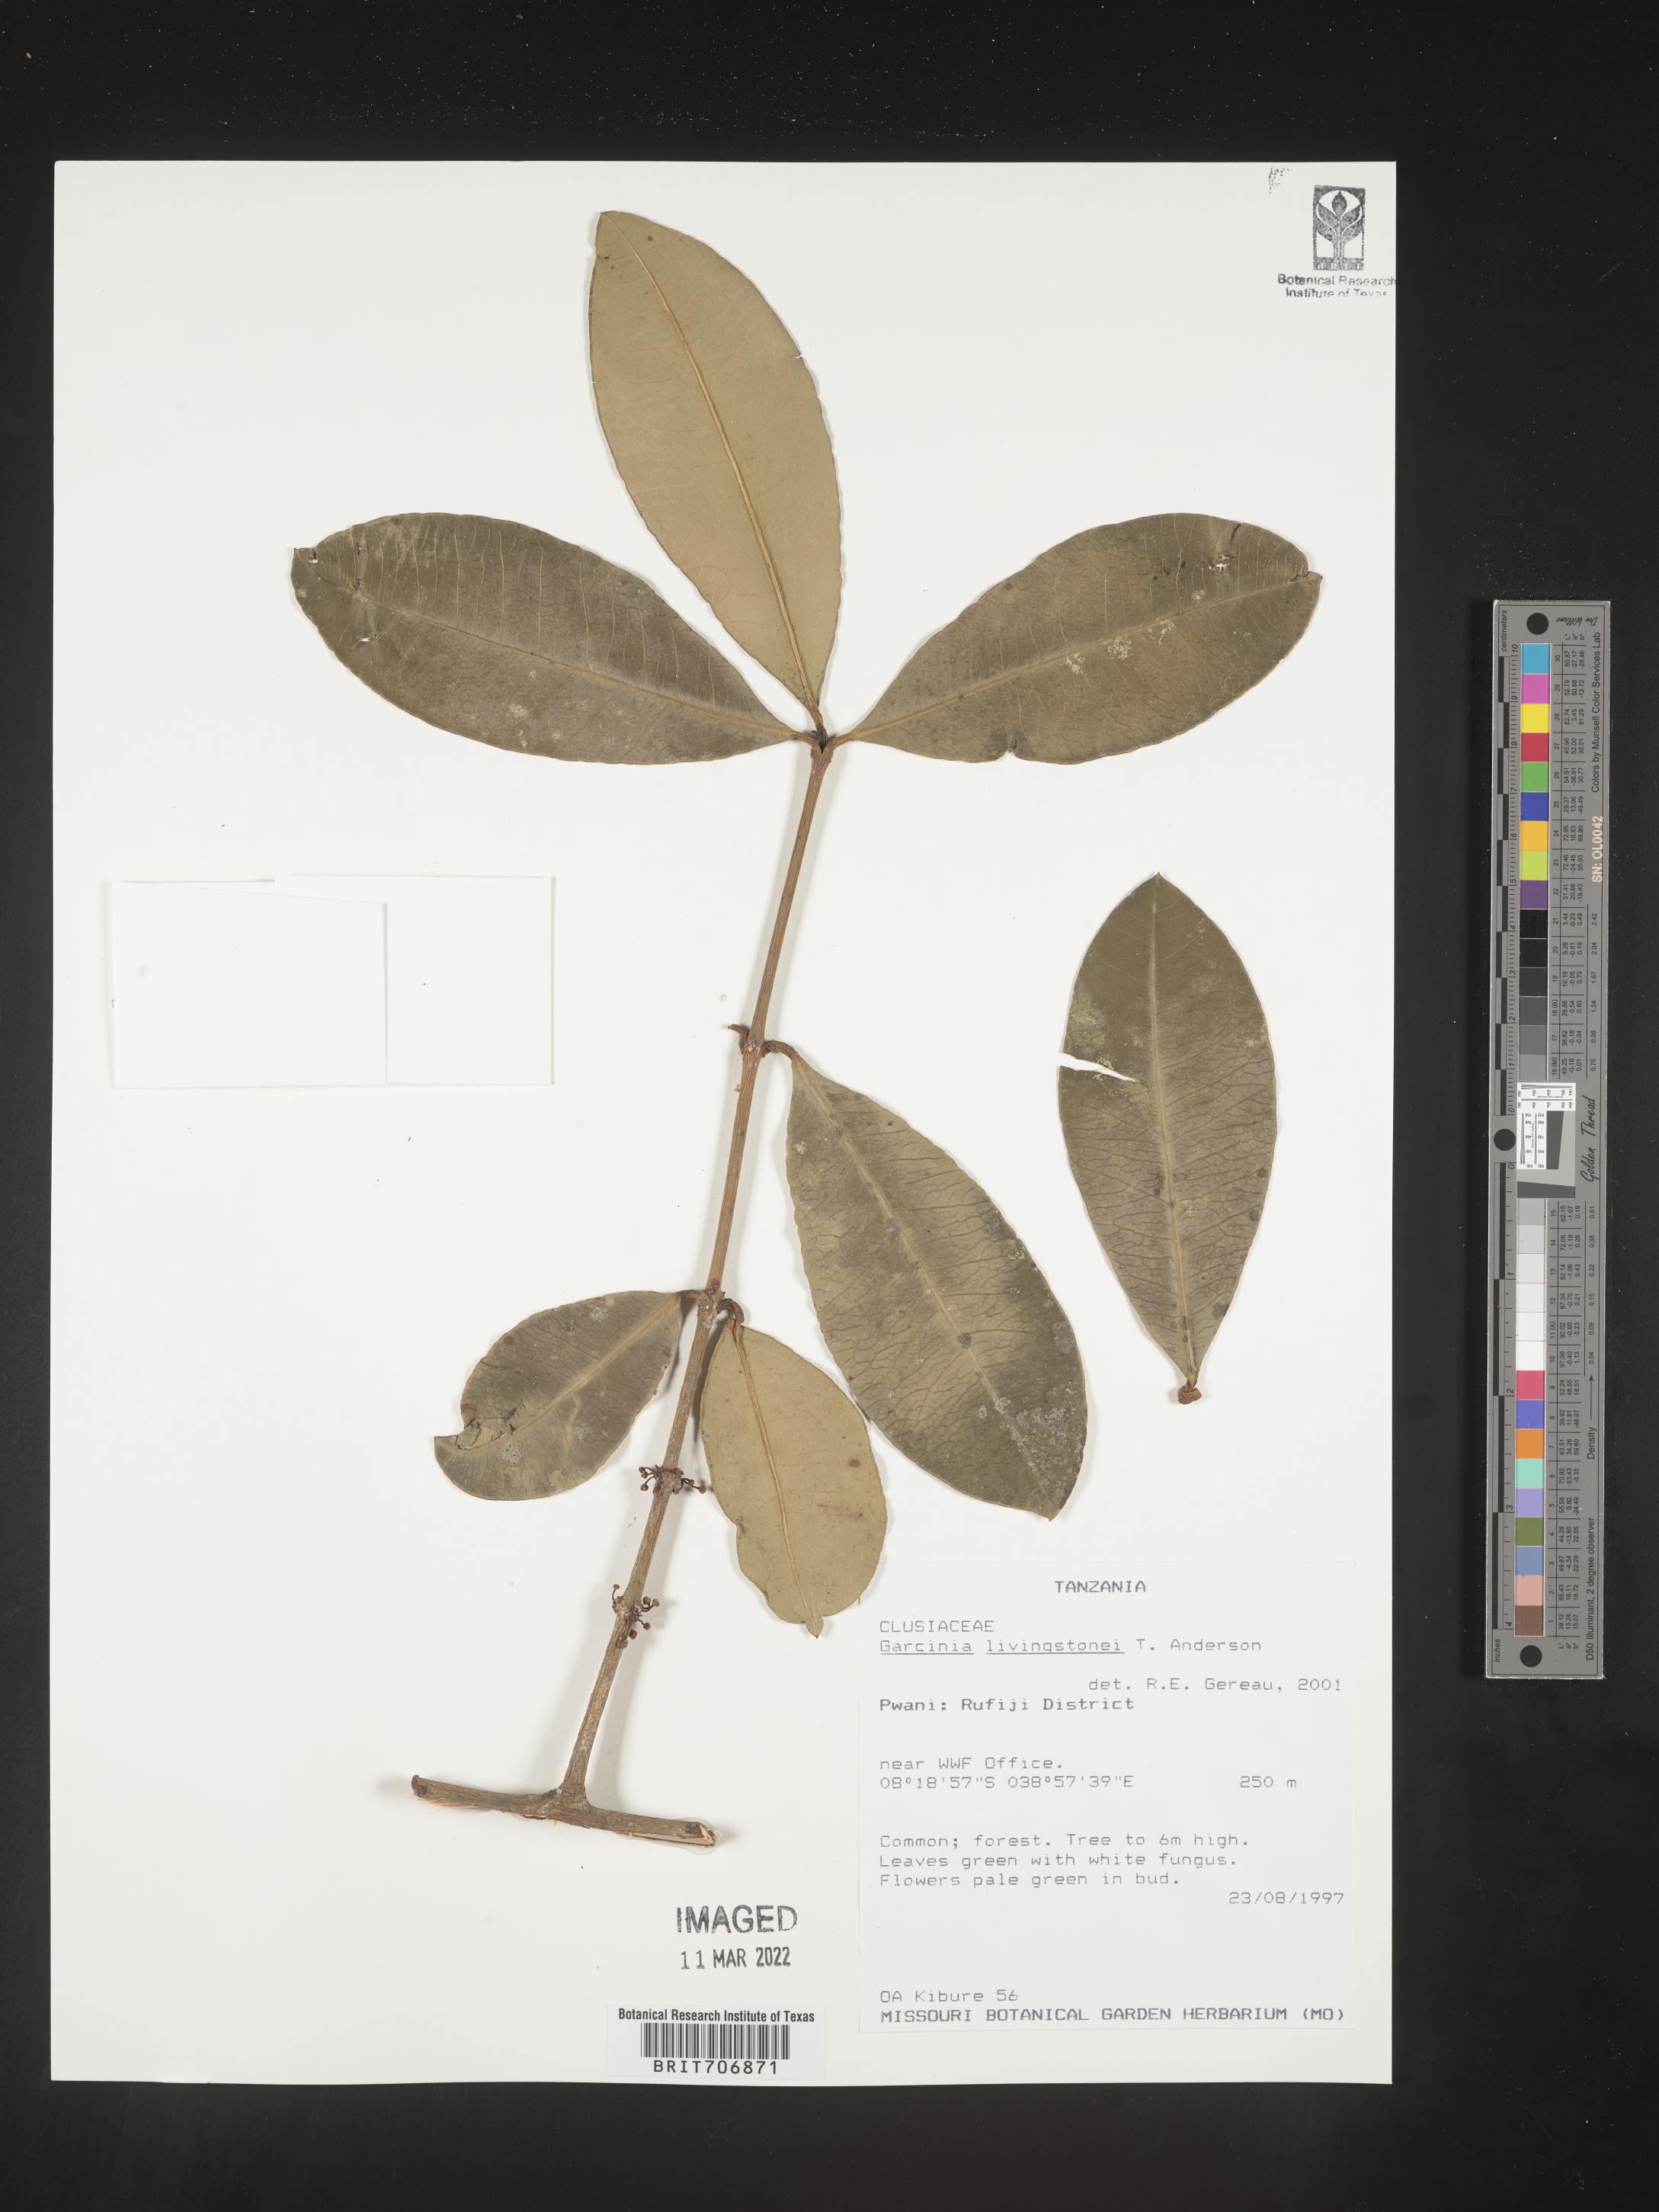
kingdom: Plantae
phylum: Tracheophyta
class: Magnoliopsida
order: Malpighiales
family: Clusiaceae
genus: Garcinia
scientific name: Garcinia
